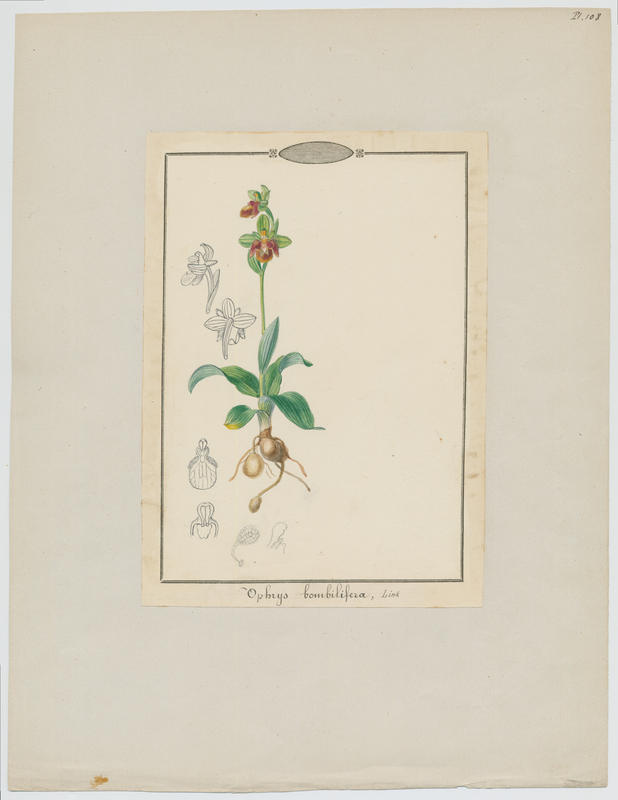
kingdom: Plantae
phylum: Tracheophyta
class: Liliopsida
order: Asparagales
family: Orchidaceae
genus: Ophrys
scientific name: Ophrys bombyliflora
